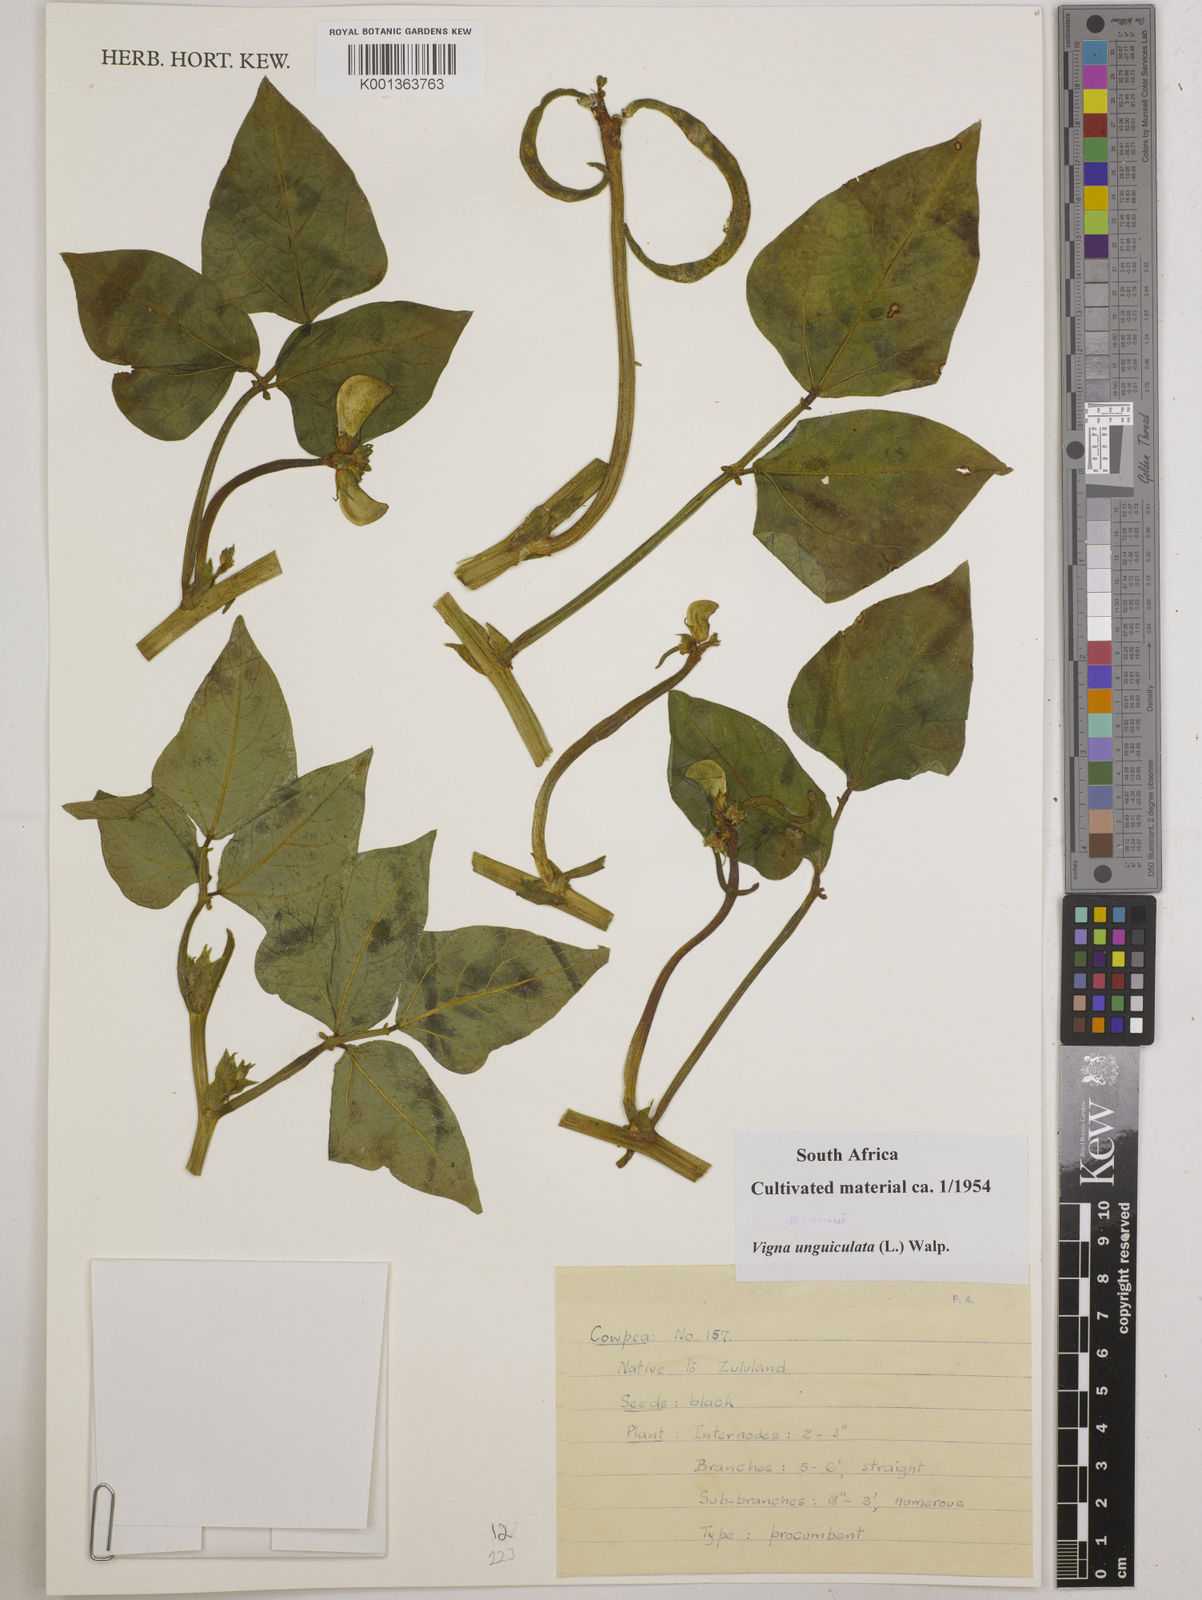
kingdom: Plantae
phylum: Tracheophyta
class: Magnoliopsida
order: Fabales
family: Fabaceae
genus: Vigna
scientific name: Vigna unguiculata
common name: Cowpea
